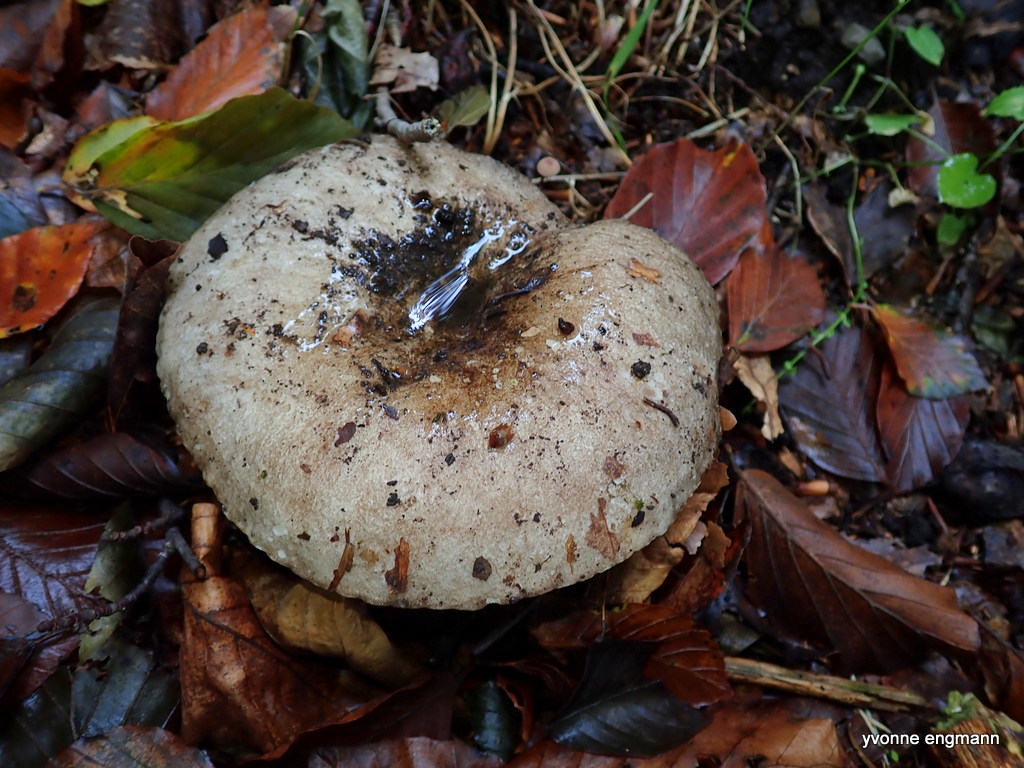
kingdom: Fungi
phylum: Basidiomycota
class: Agaricomycetes
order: Russulales
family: Russulaceae
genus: Russula
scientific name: Russula adusta
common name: sværtende skørhat
